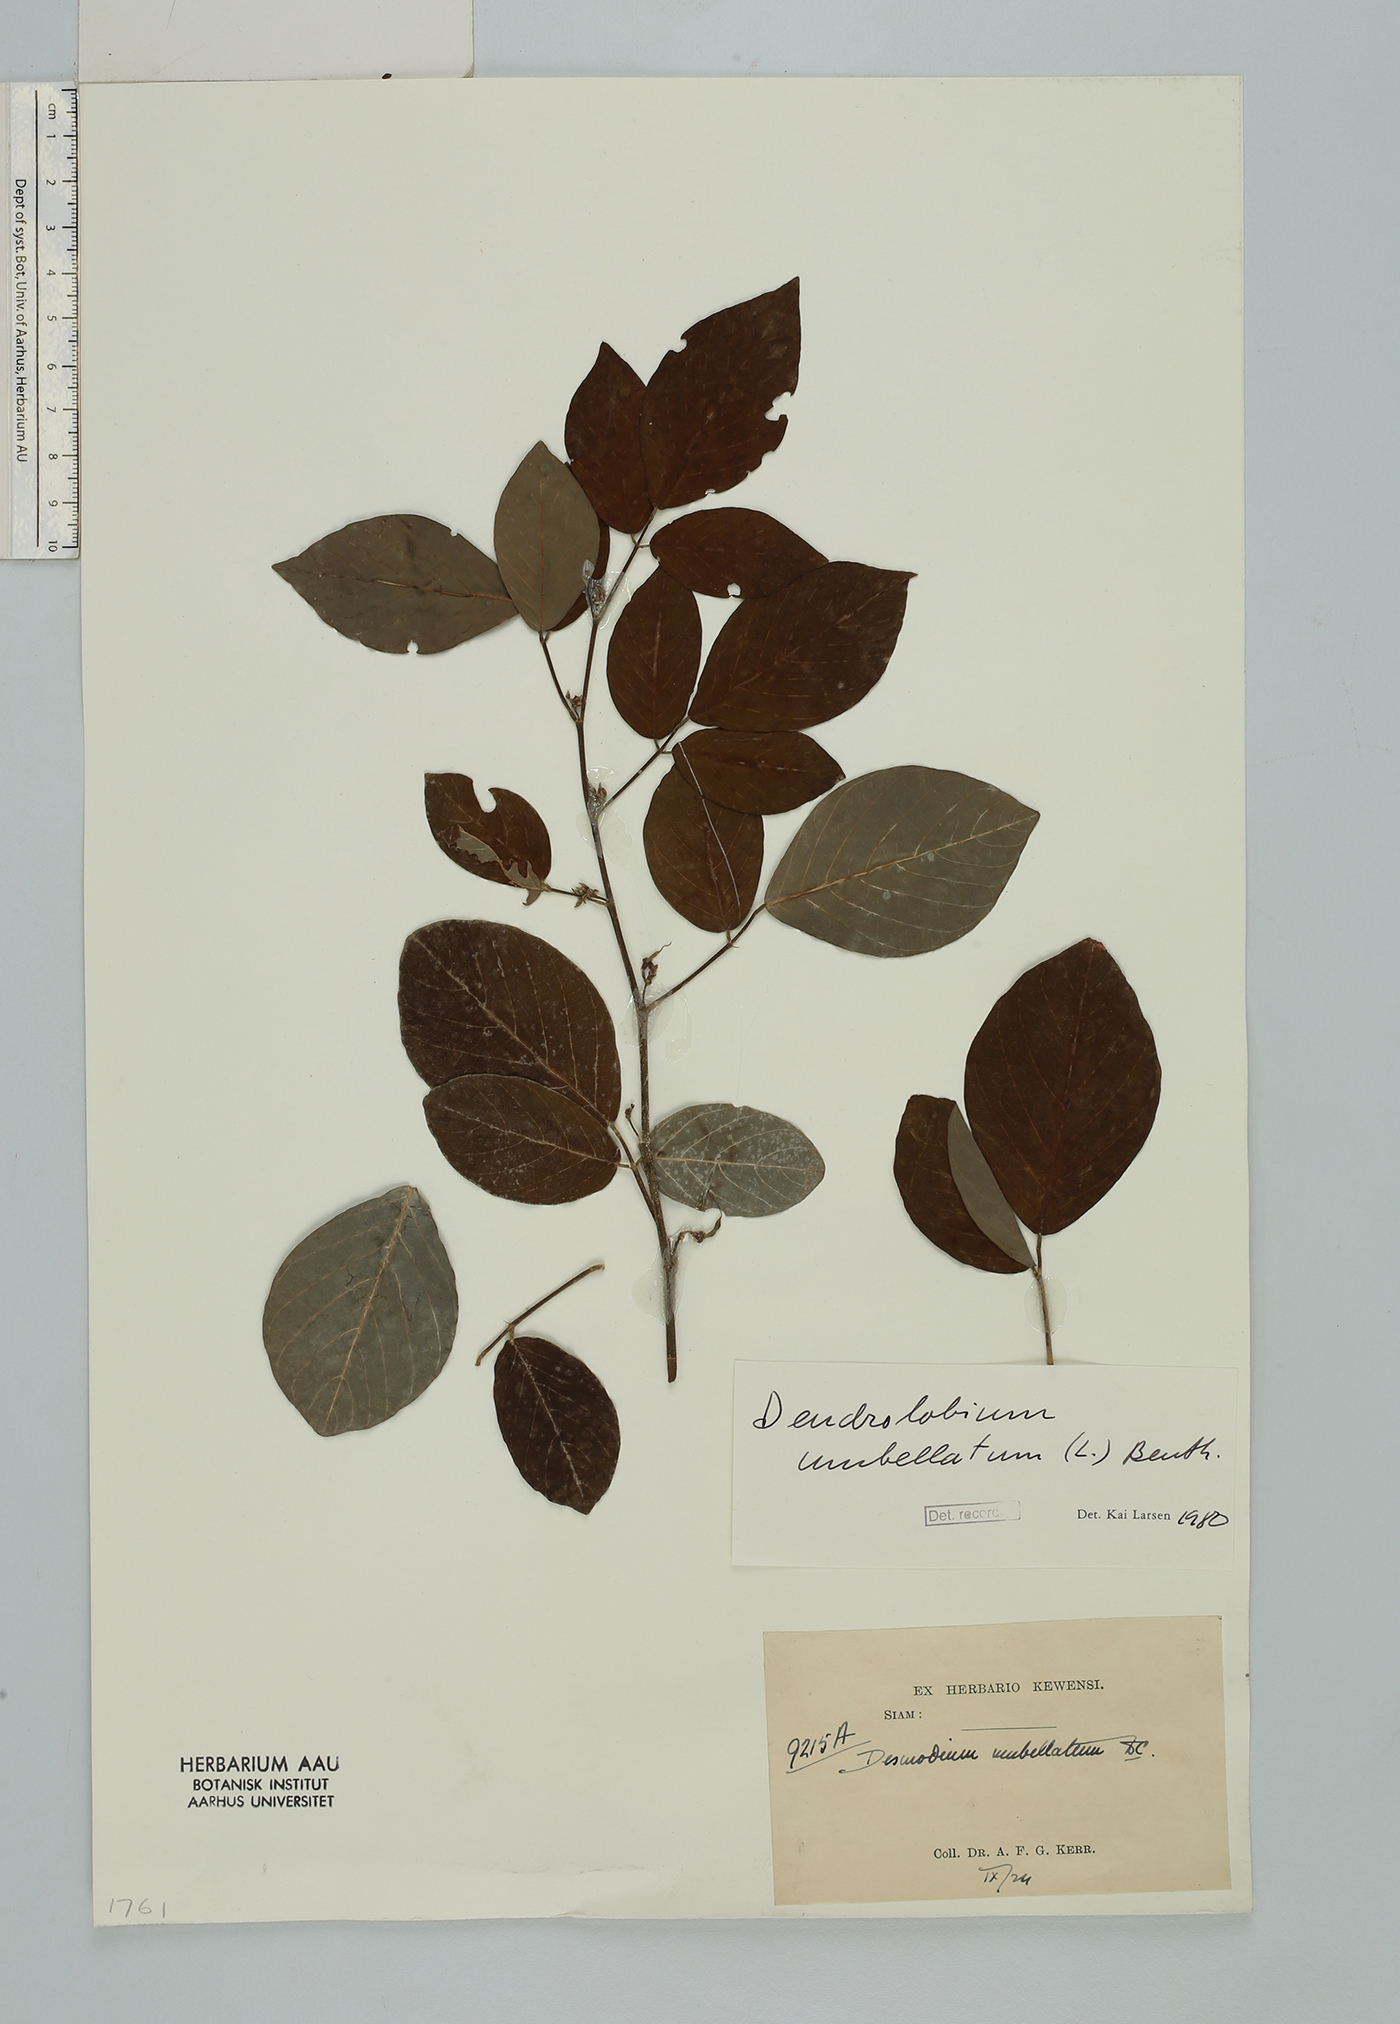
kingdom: Plantae
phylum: Tracheophyta
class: Magnoliopsida
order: Fabales
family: Fabaceae
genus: Dendrolobium
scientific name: Dendrolobium umbellatum
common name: Horsebush
